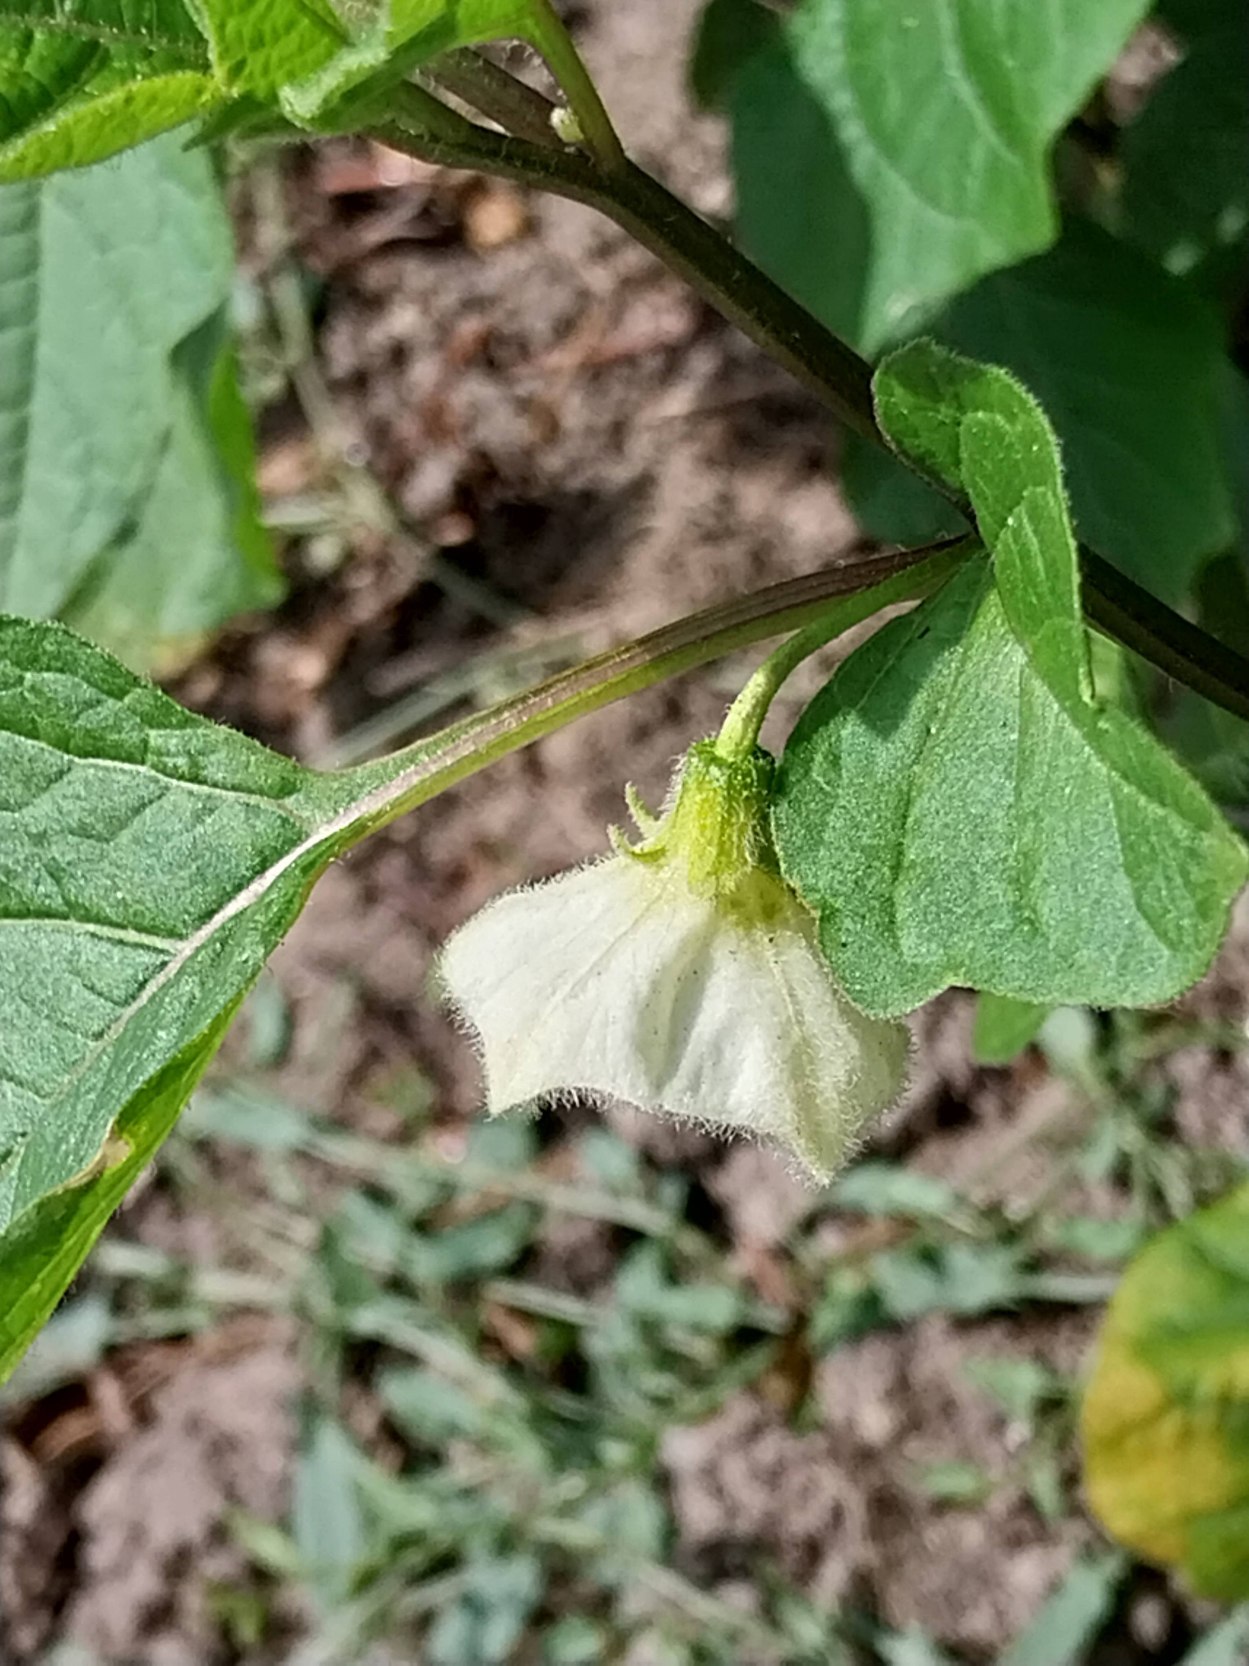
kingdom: Plantae
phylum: Tracheophyta
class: Magnoliopsida
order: Solanales
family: Solanaceae
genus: Alkekengi
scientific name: Alkekengi officinarum
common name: Jødekirsebær
